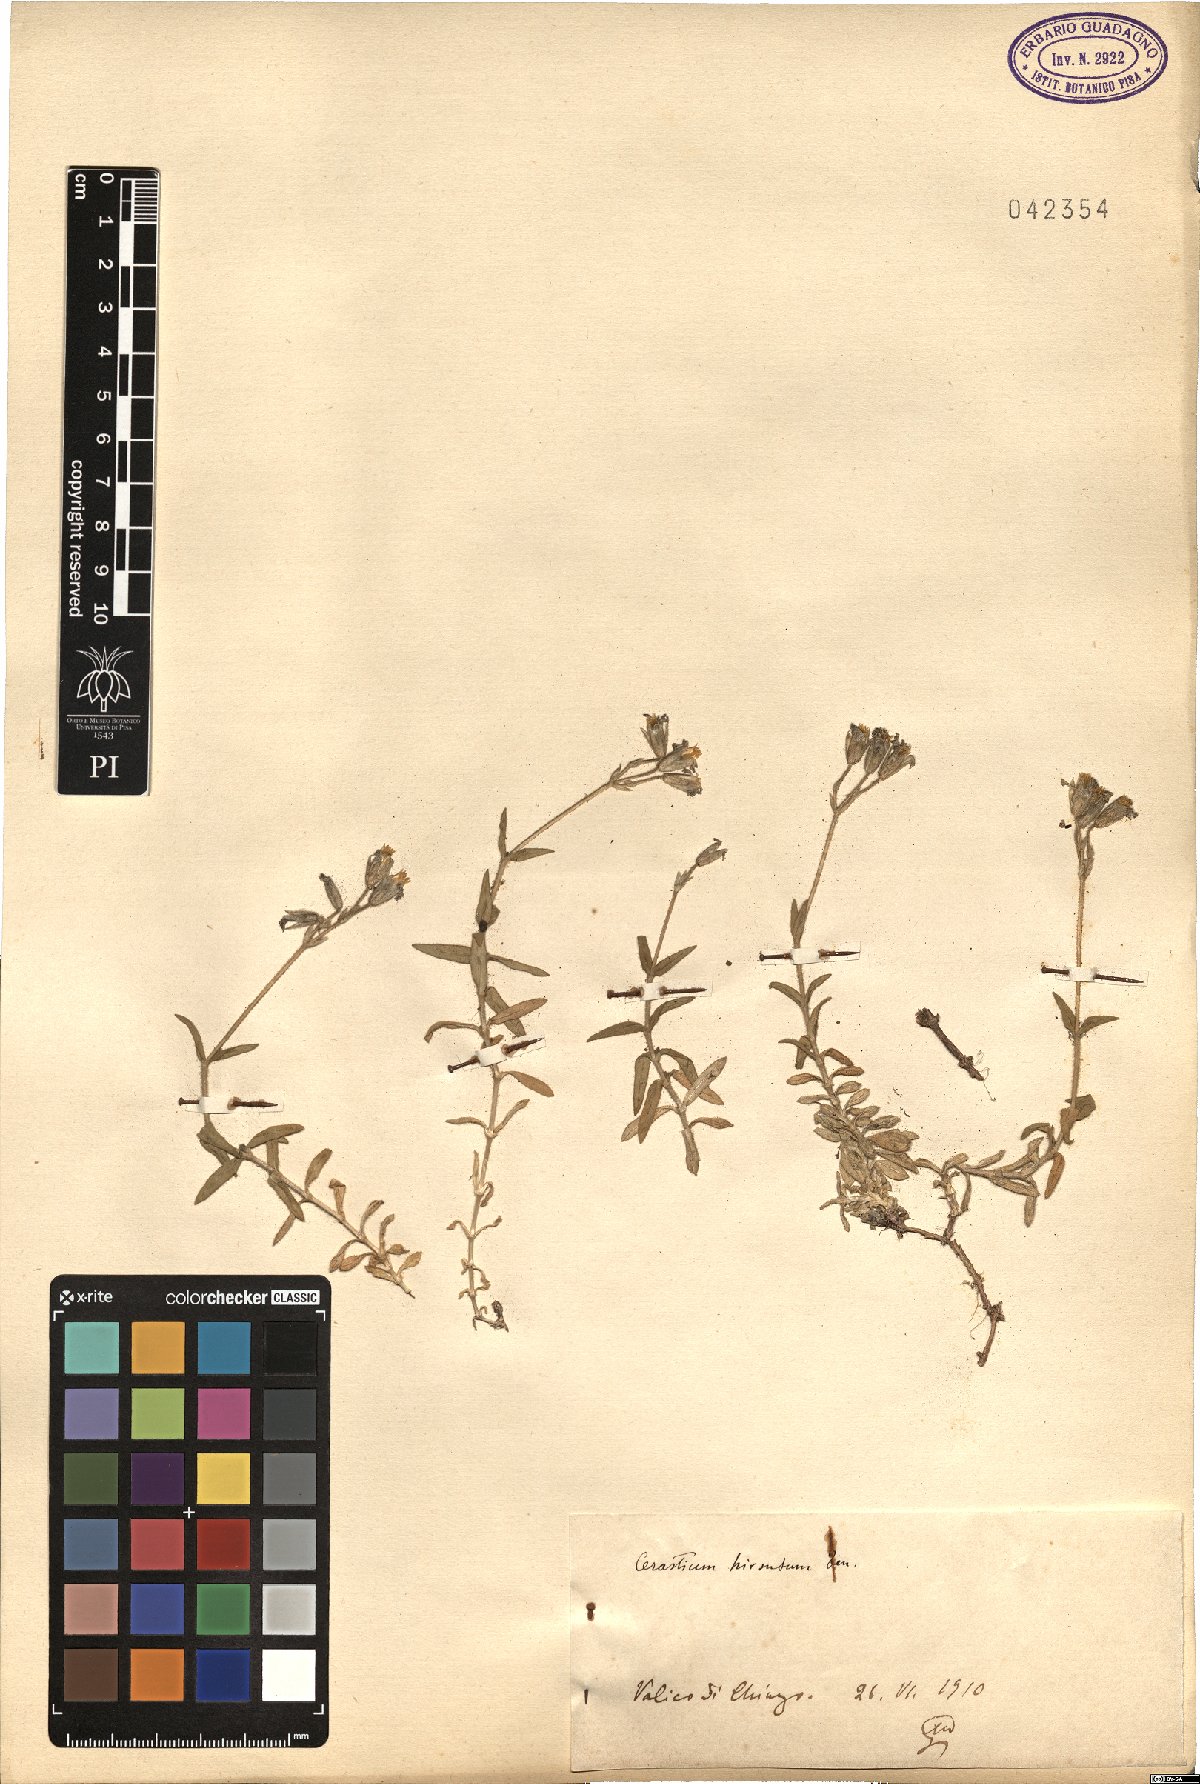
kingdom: Plantae
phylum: Tracheophyta
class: Magnoliopsida
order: Caryophyllales
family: Caryophyllaceae
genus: Cerastium
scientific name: Cerastium scaranii
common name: Italian mouse-ear
